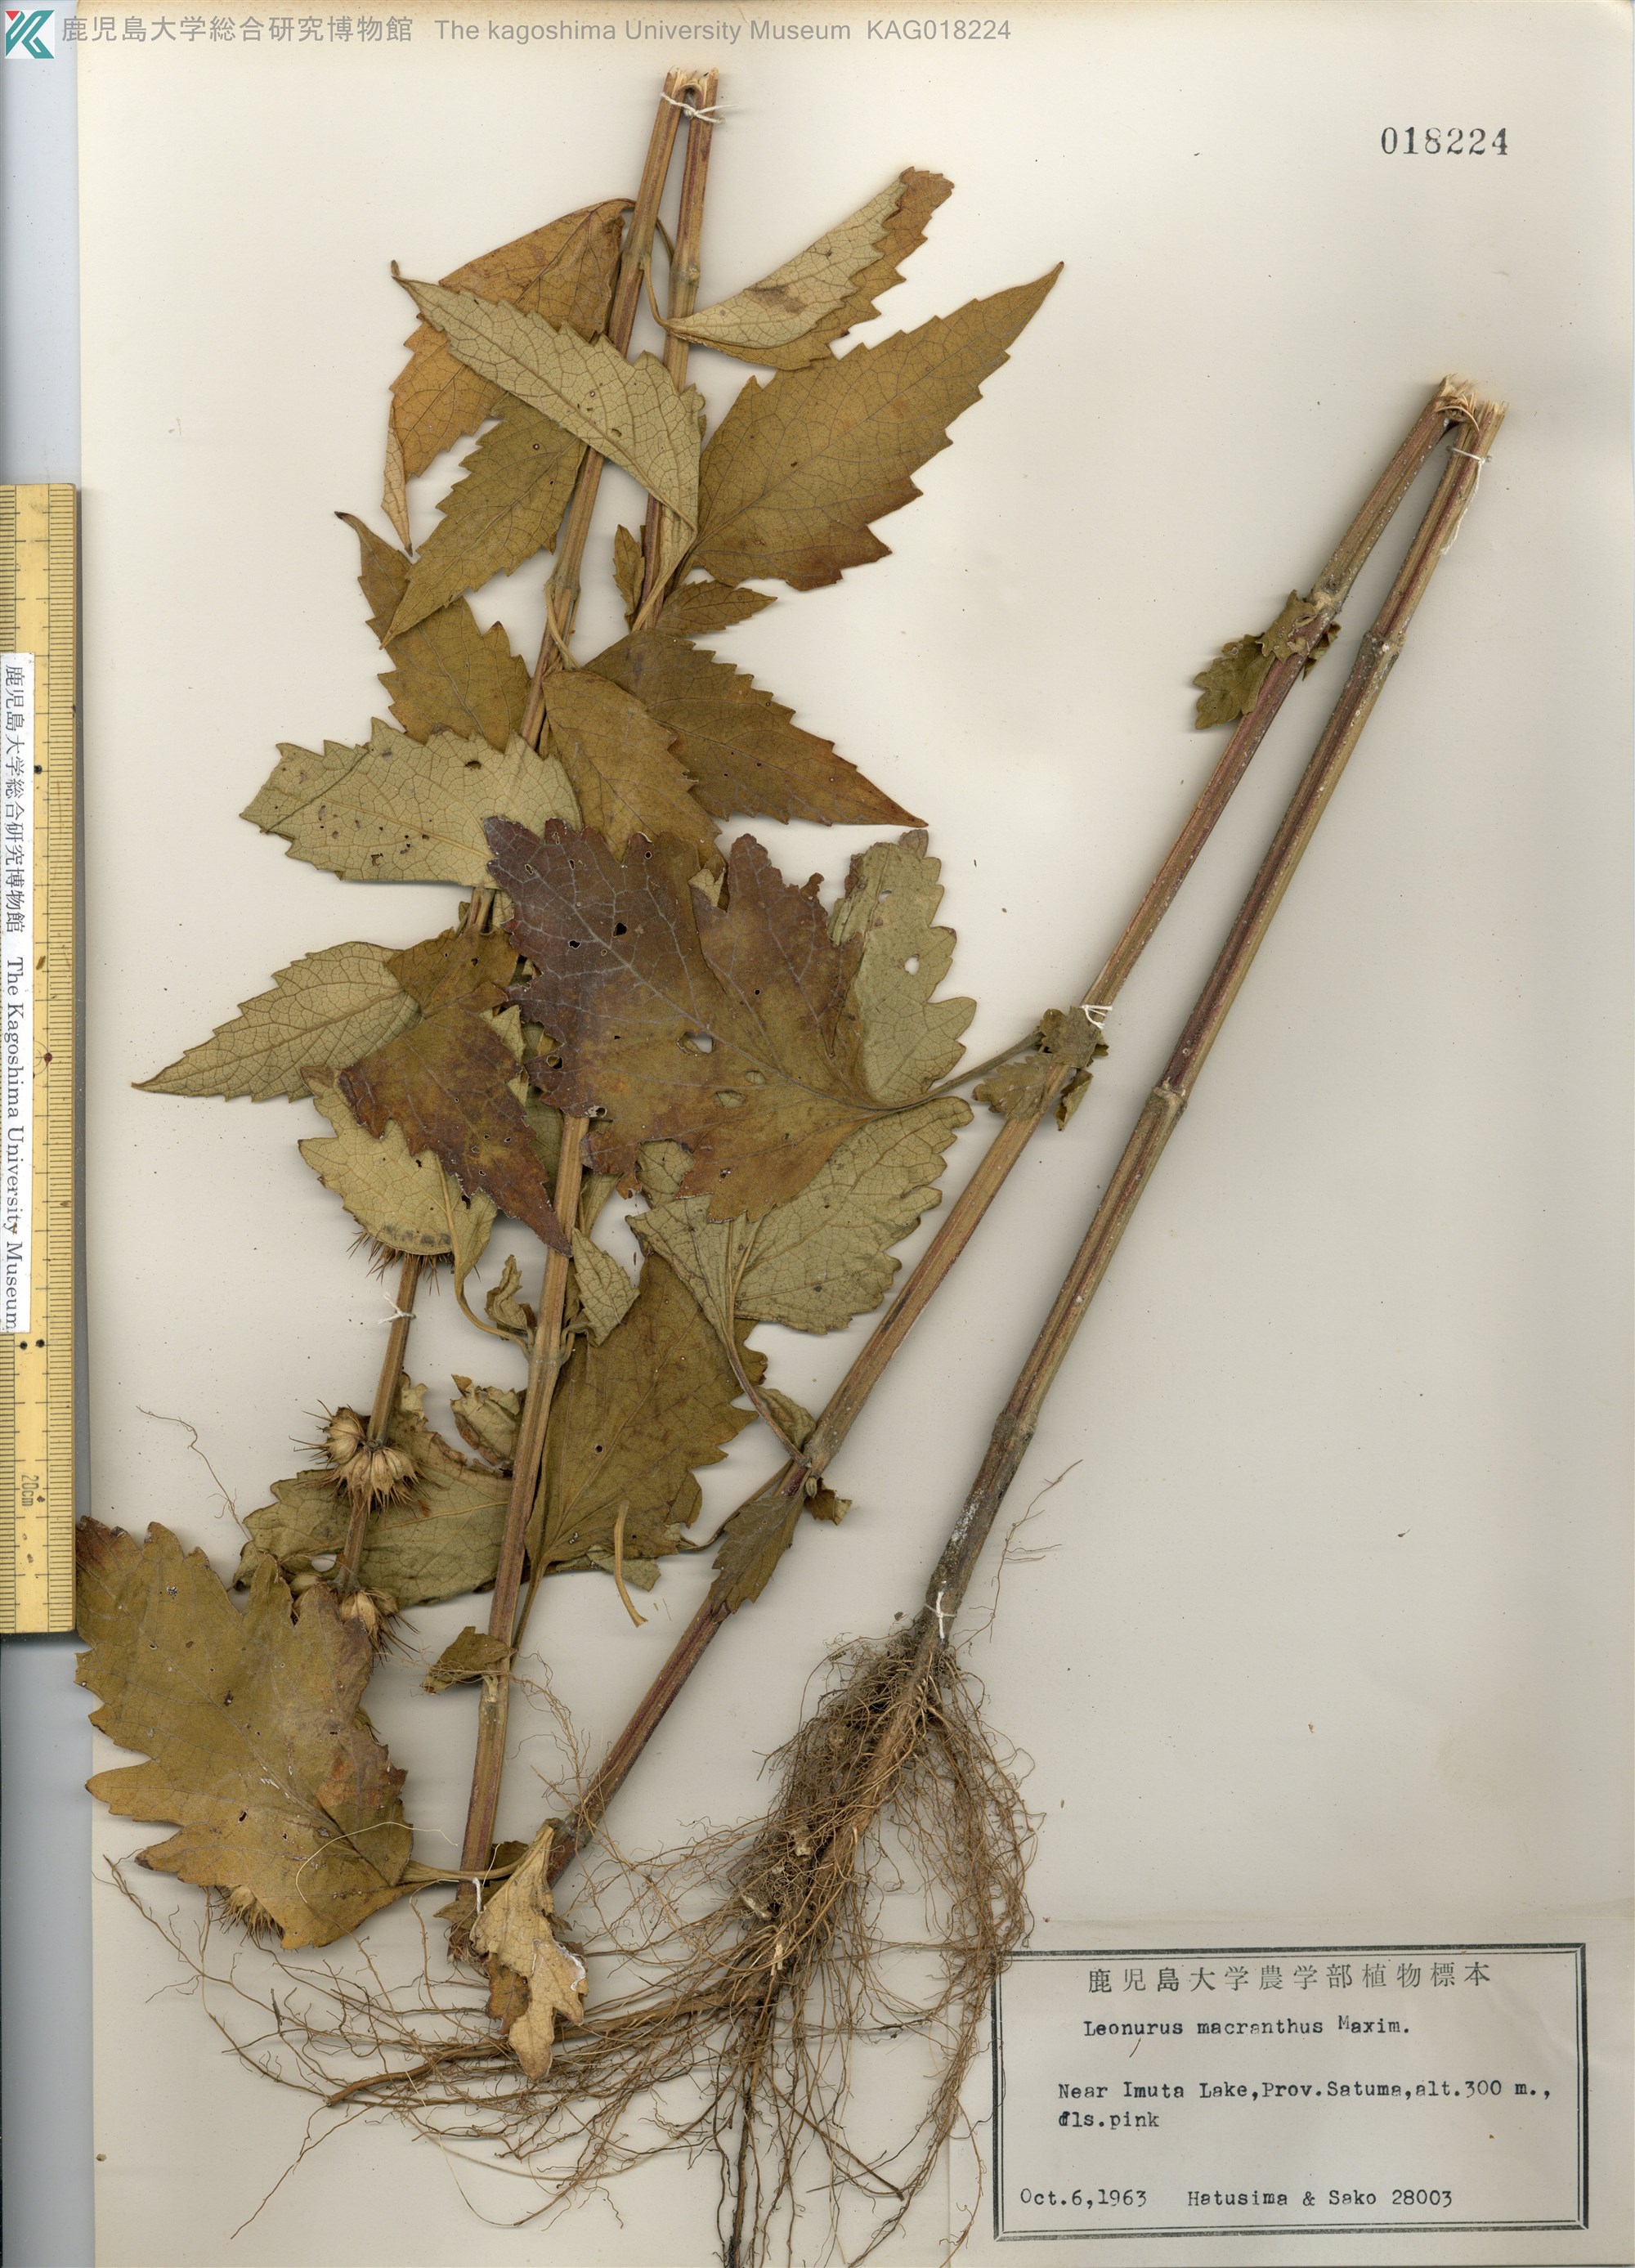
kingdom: Plantae
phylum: Tracheophyta
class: Magnoliopsida
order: Lamiales
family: Lamiaceae
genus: Leonurus
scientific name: Leonurus macranthus
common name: キセワタ
